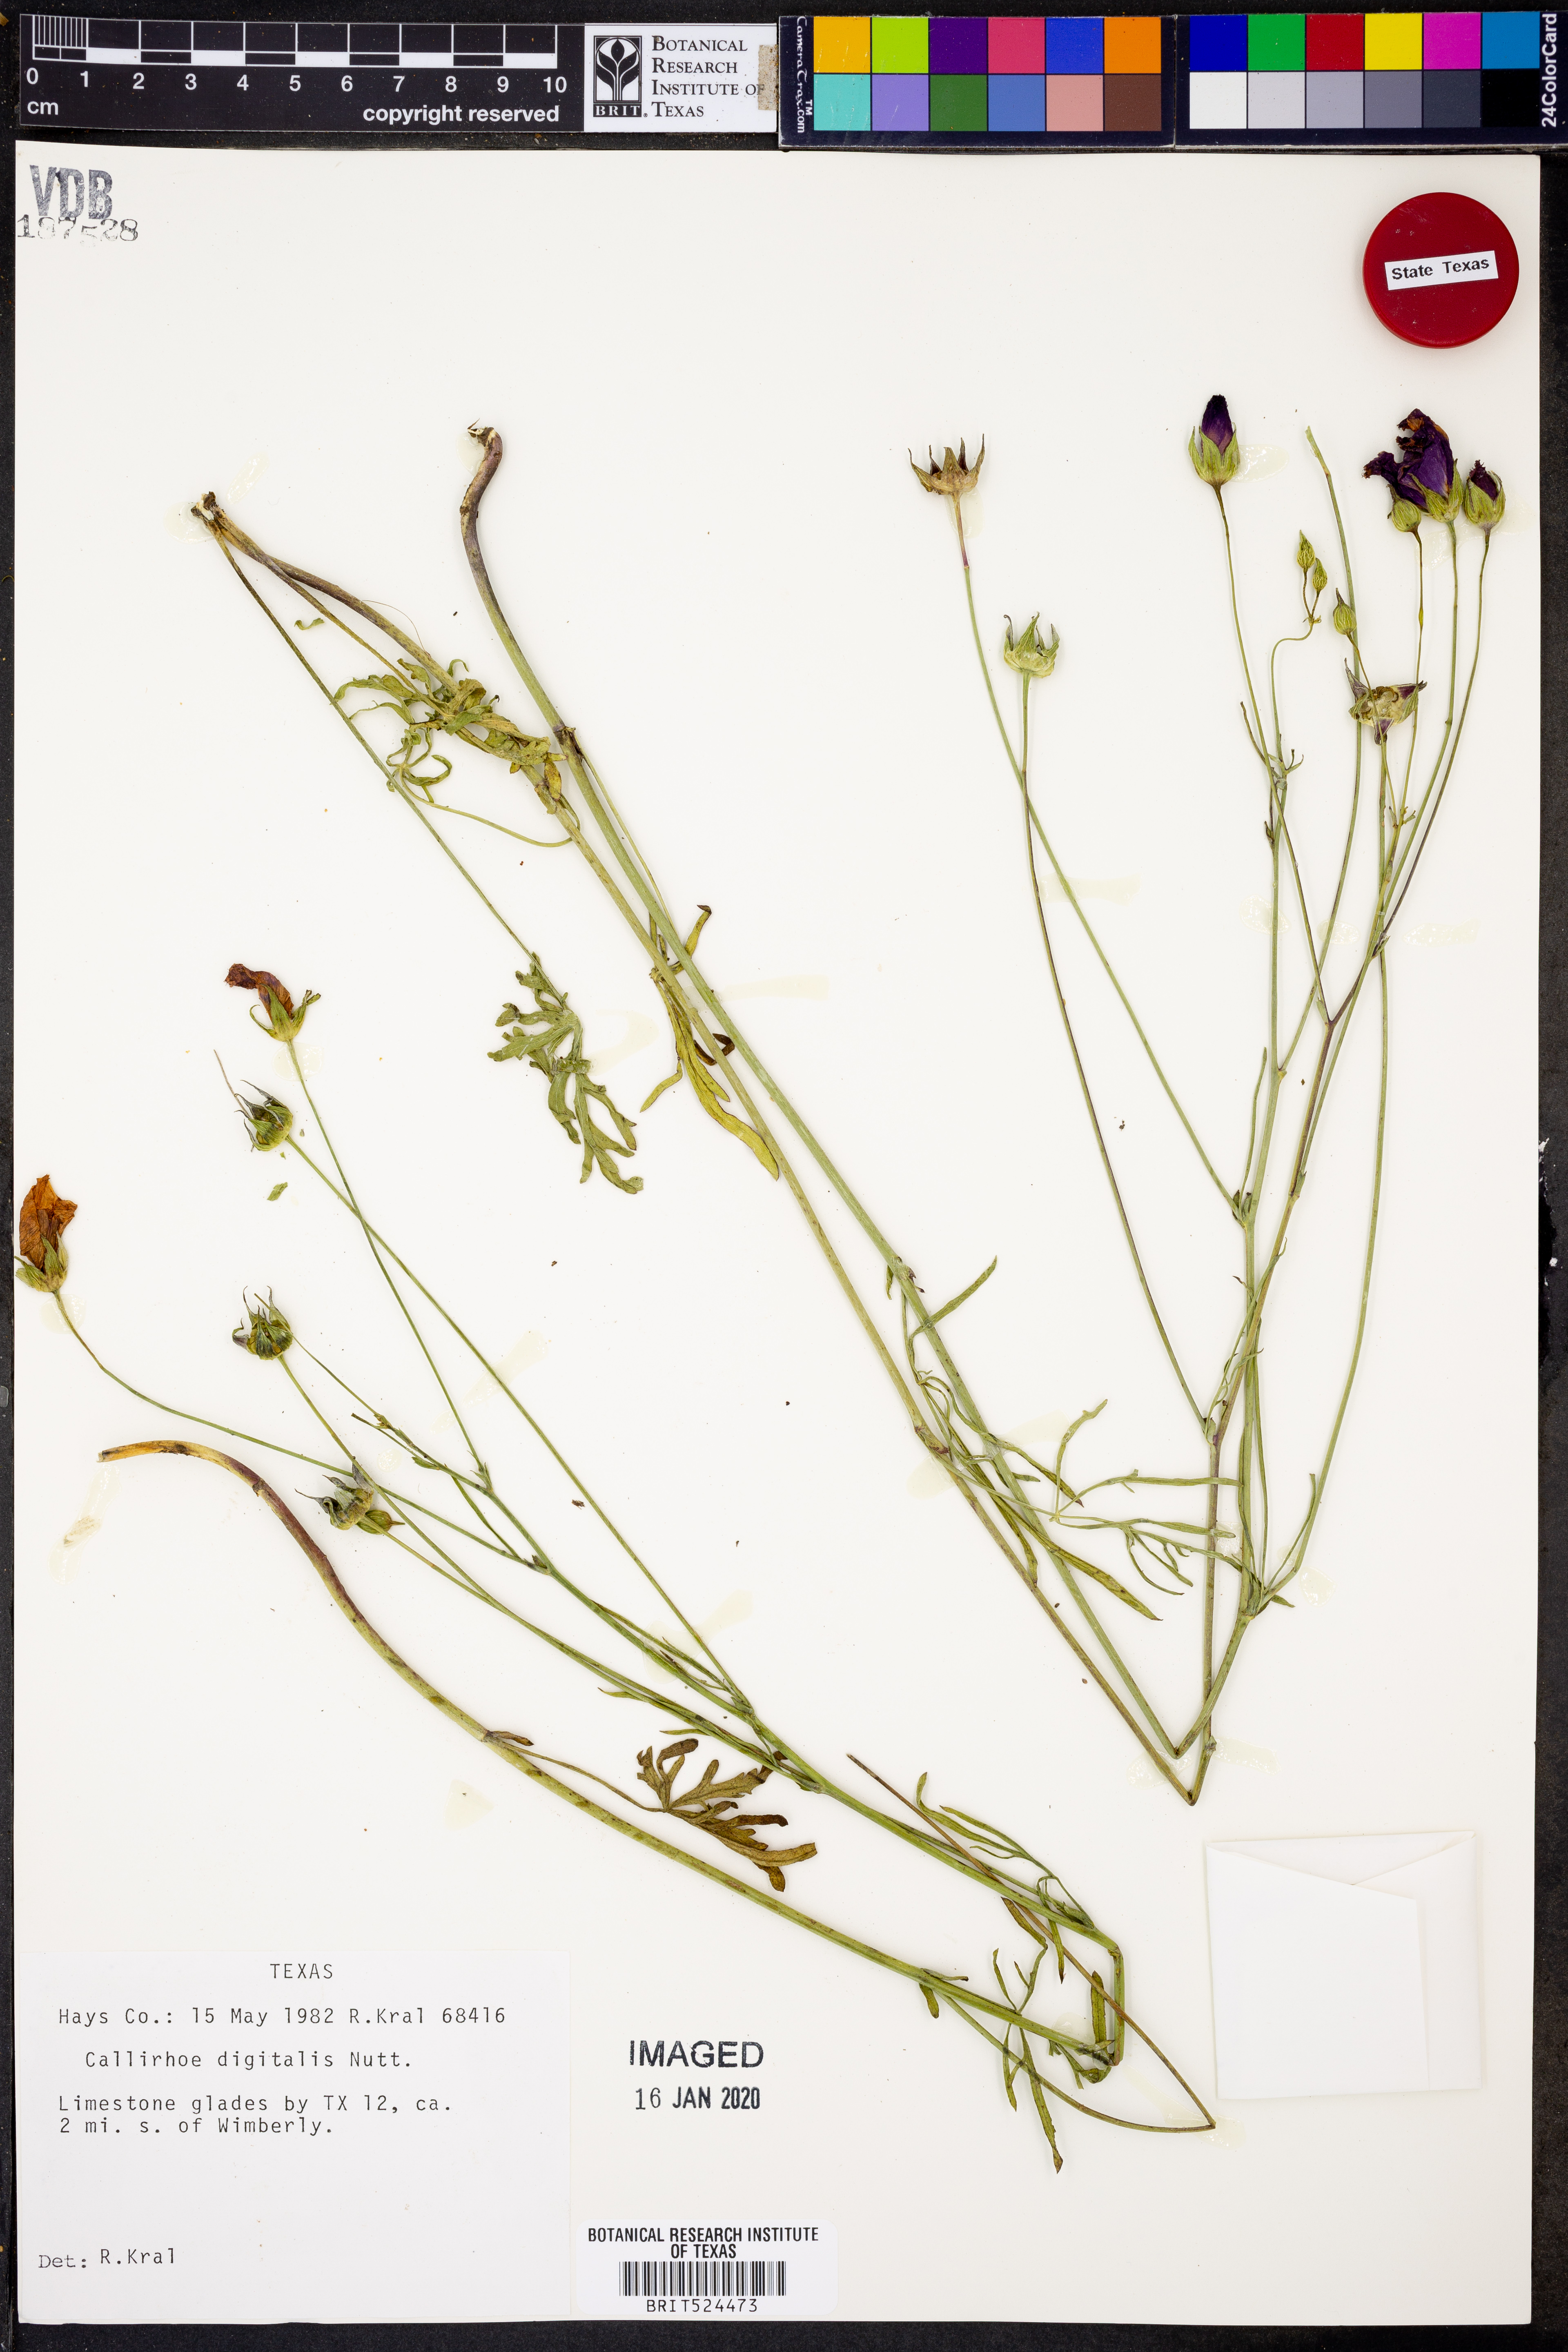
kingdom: Plantae
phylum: Tracheophyta
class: Magnoliopsida
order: Malvales
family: Malvaceae
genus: Callirhoe
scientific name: Callirhoe digitata
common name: Finger poppy-mallow
